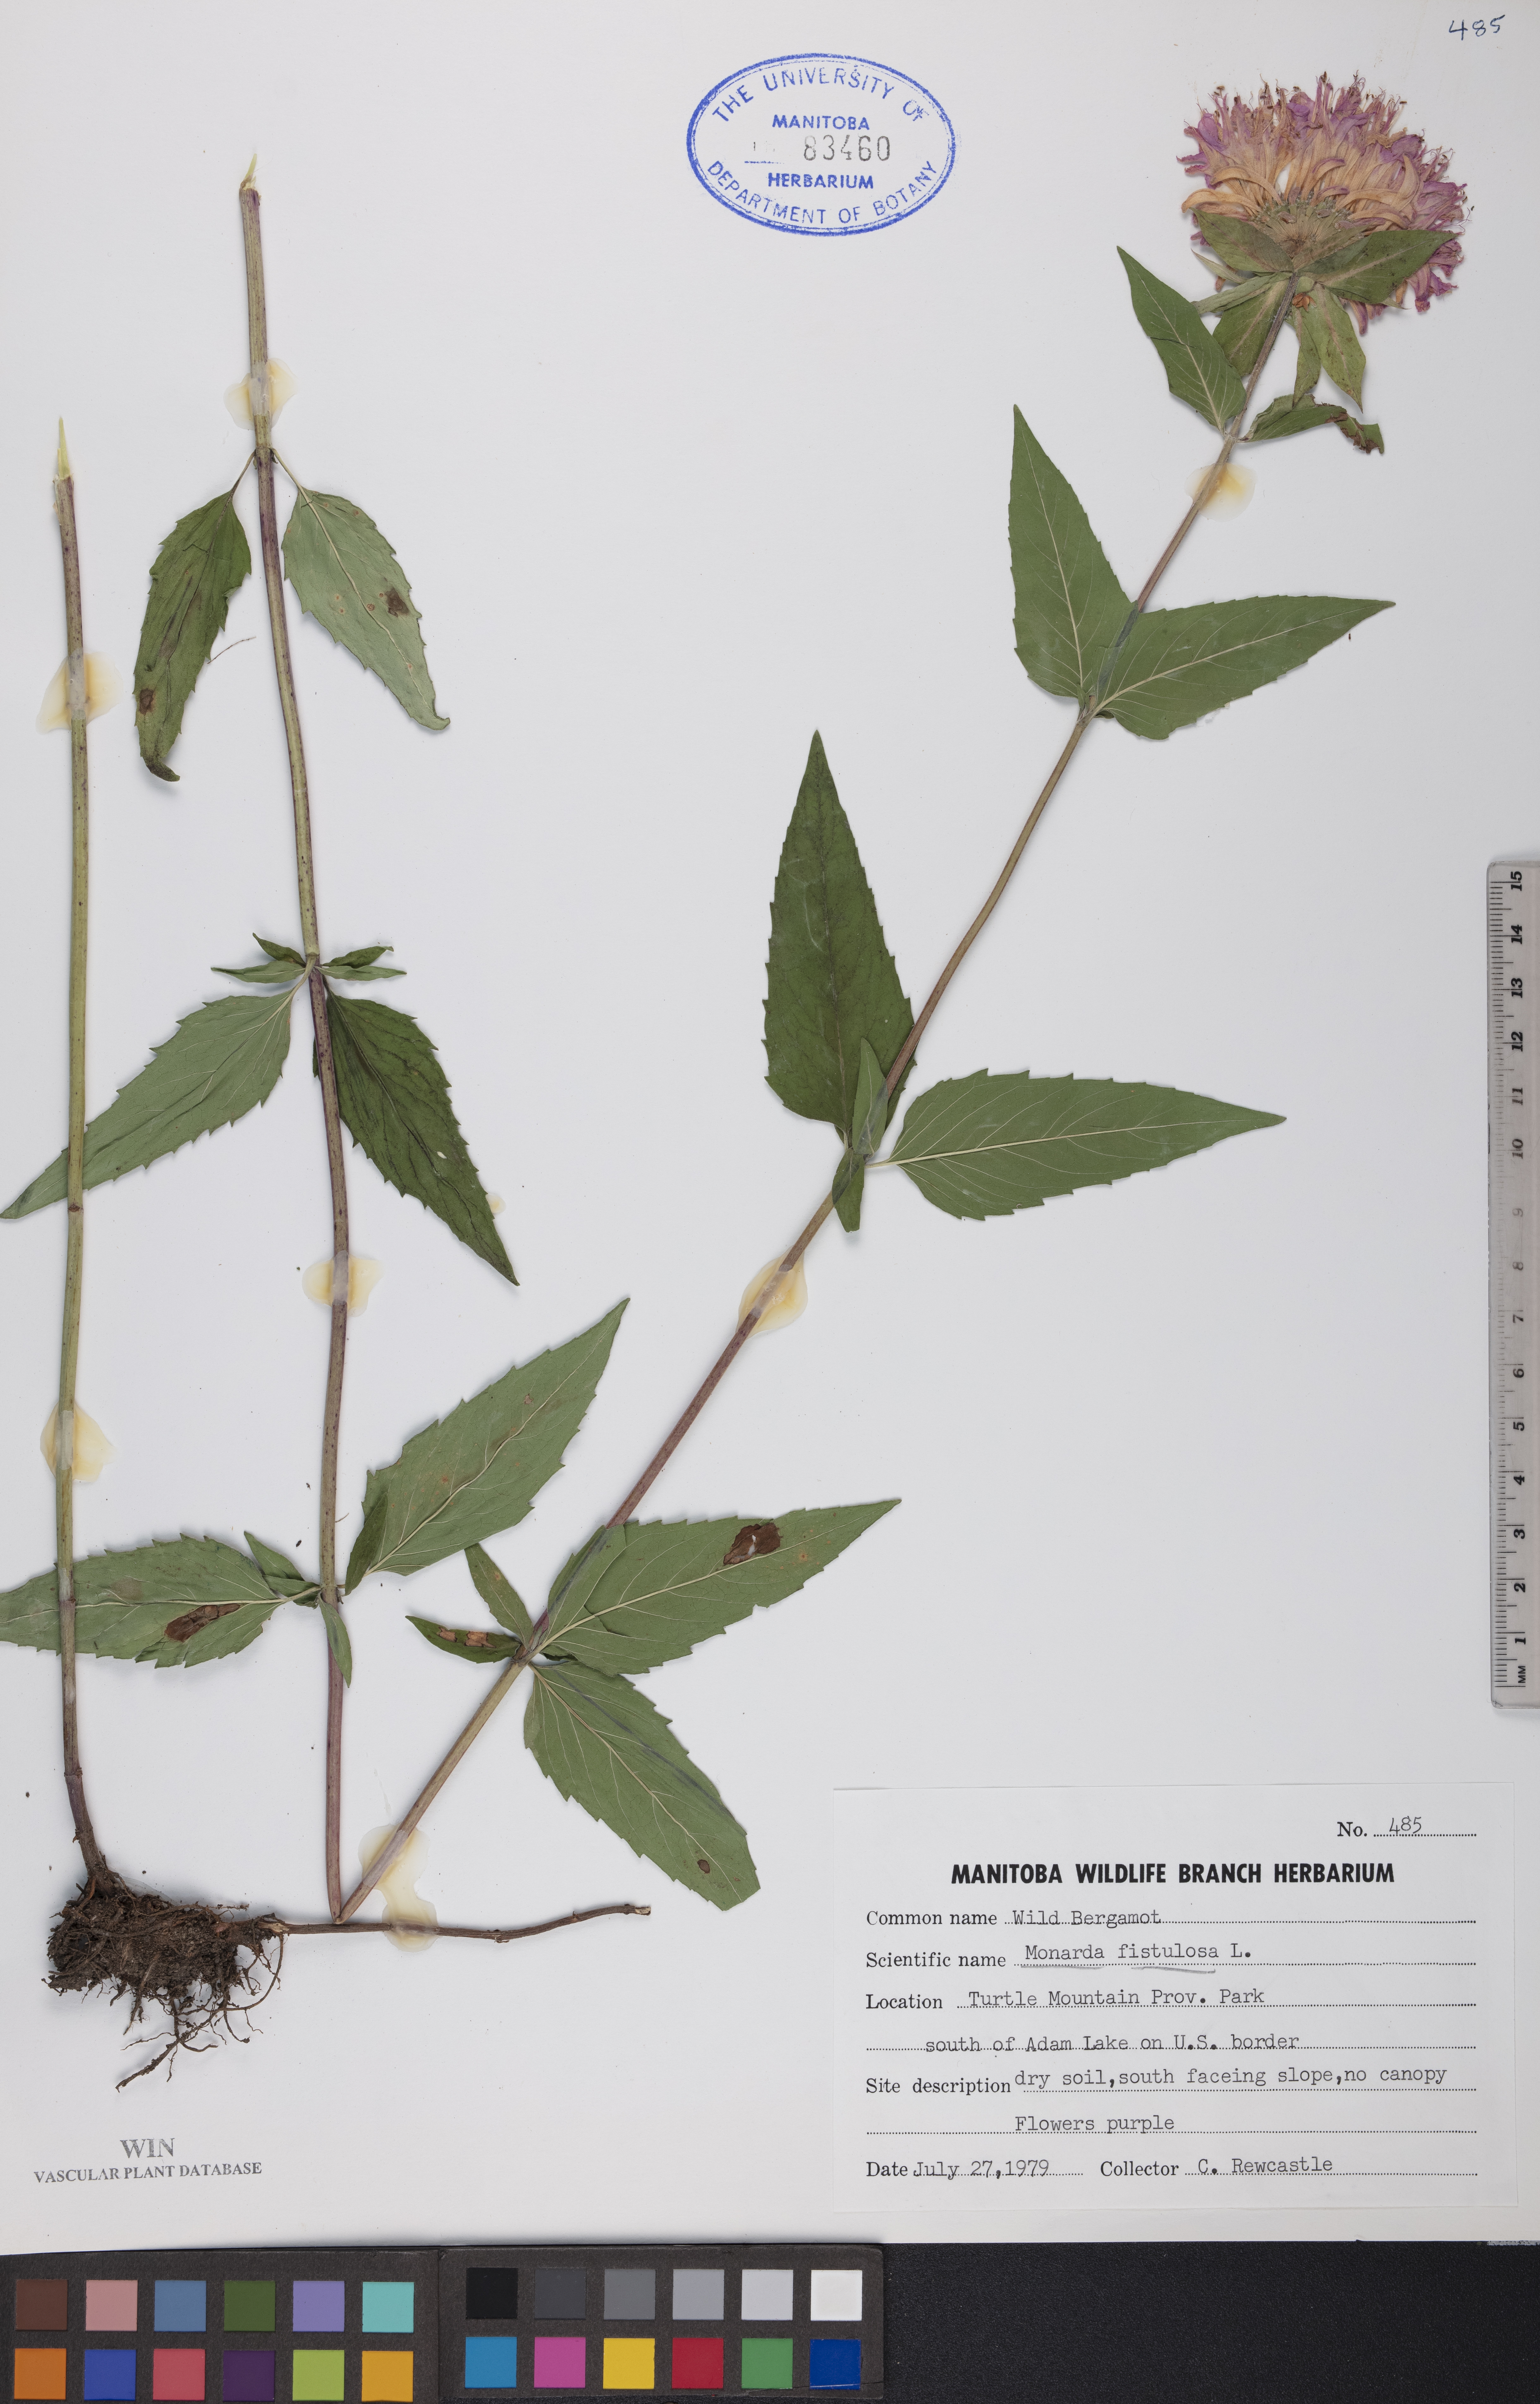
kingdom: Plantae
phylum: Tracheophyta
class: Magnoliopsida
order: Lamiales
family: Lamiaceae
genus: Monarda
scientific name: Monarda fistulosa
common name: Purple beebalm
